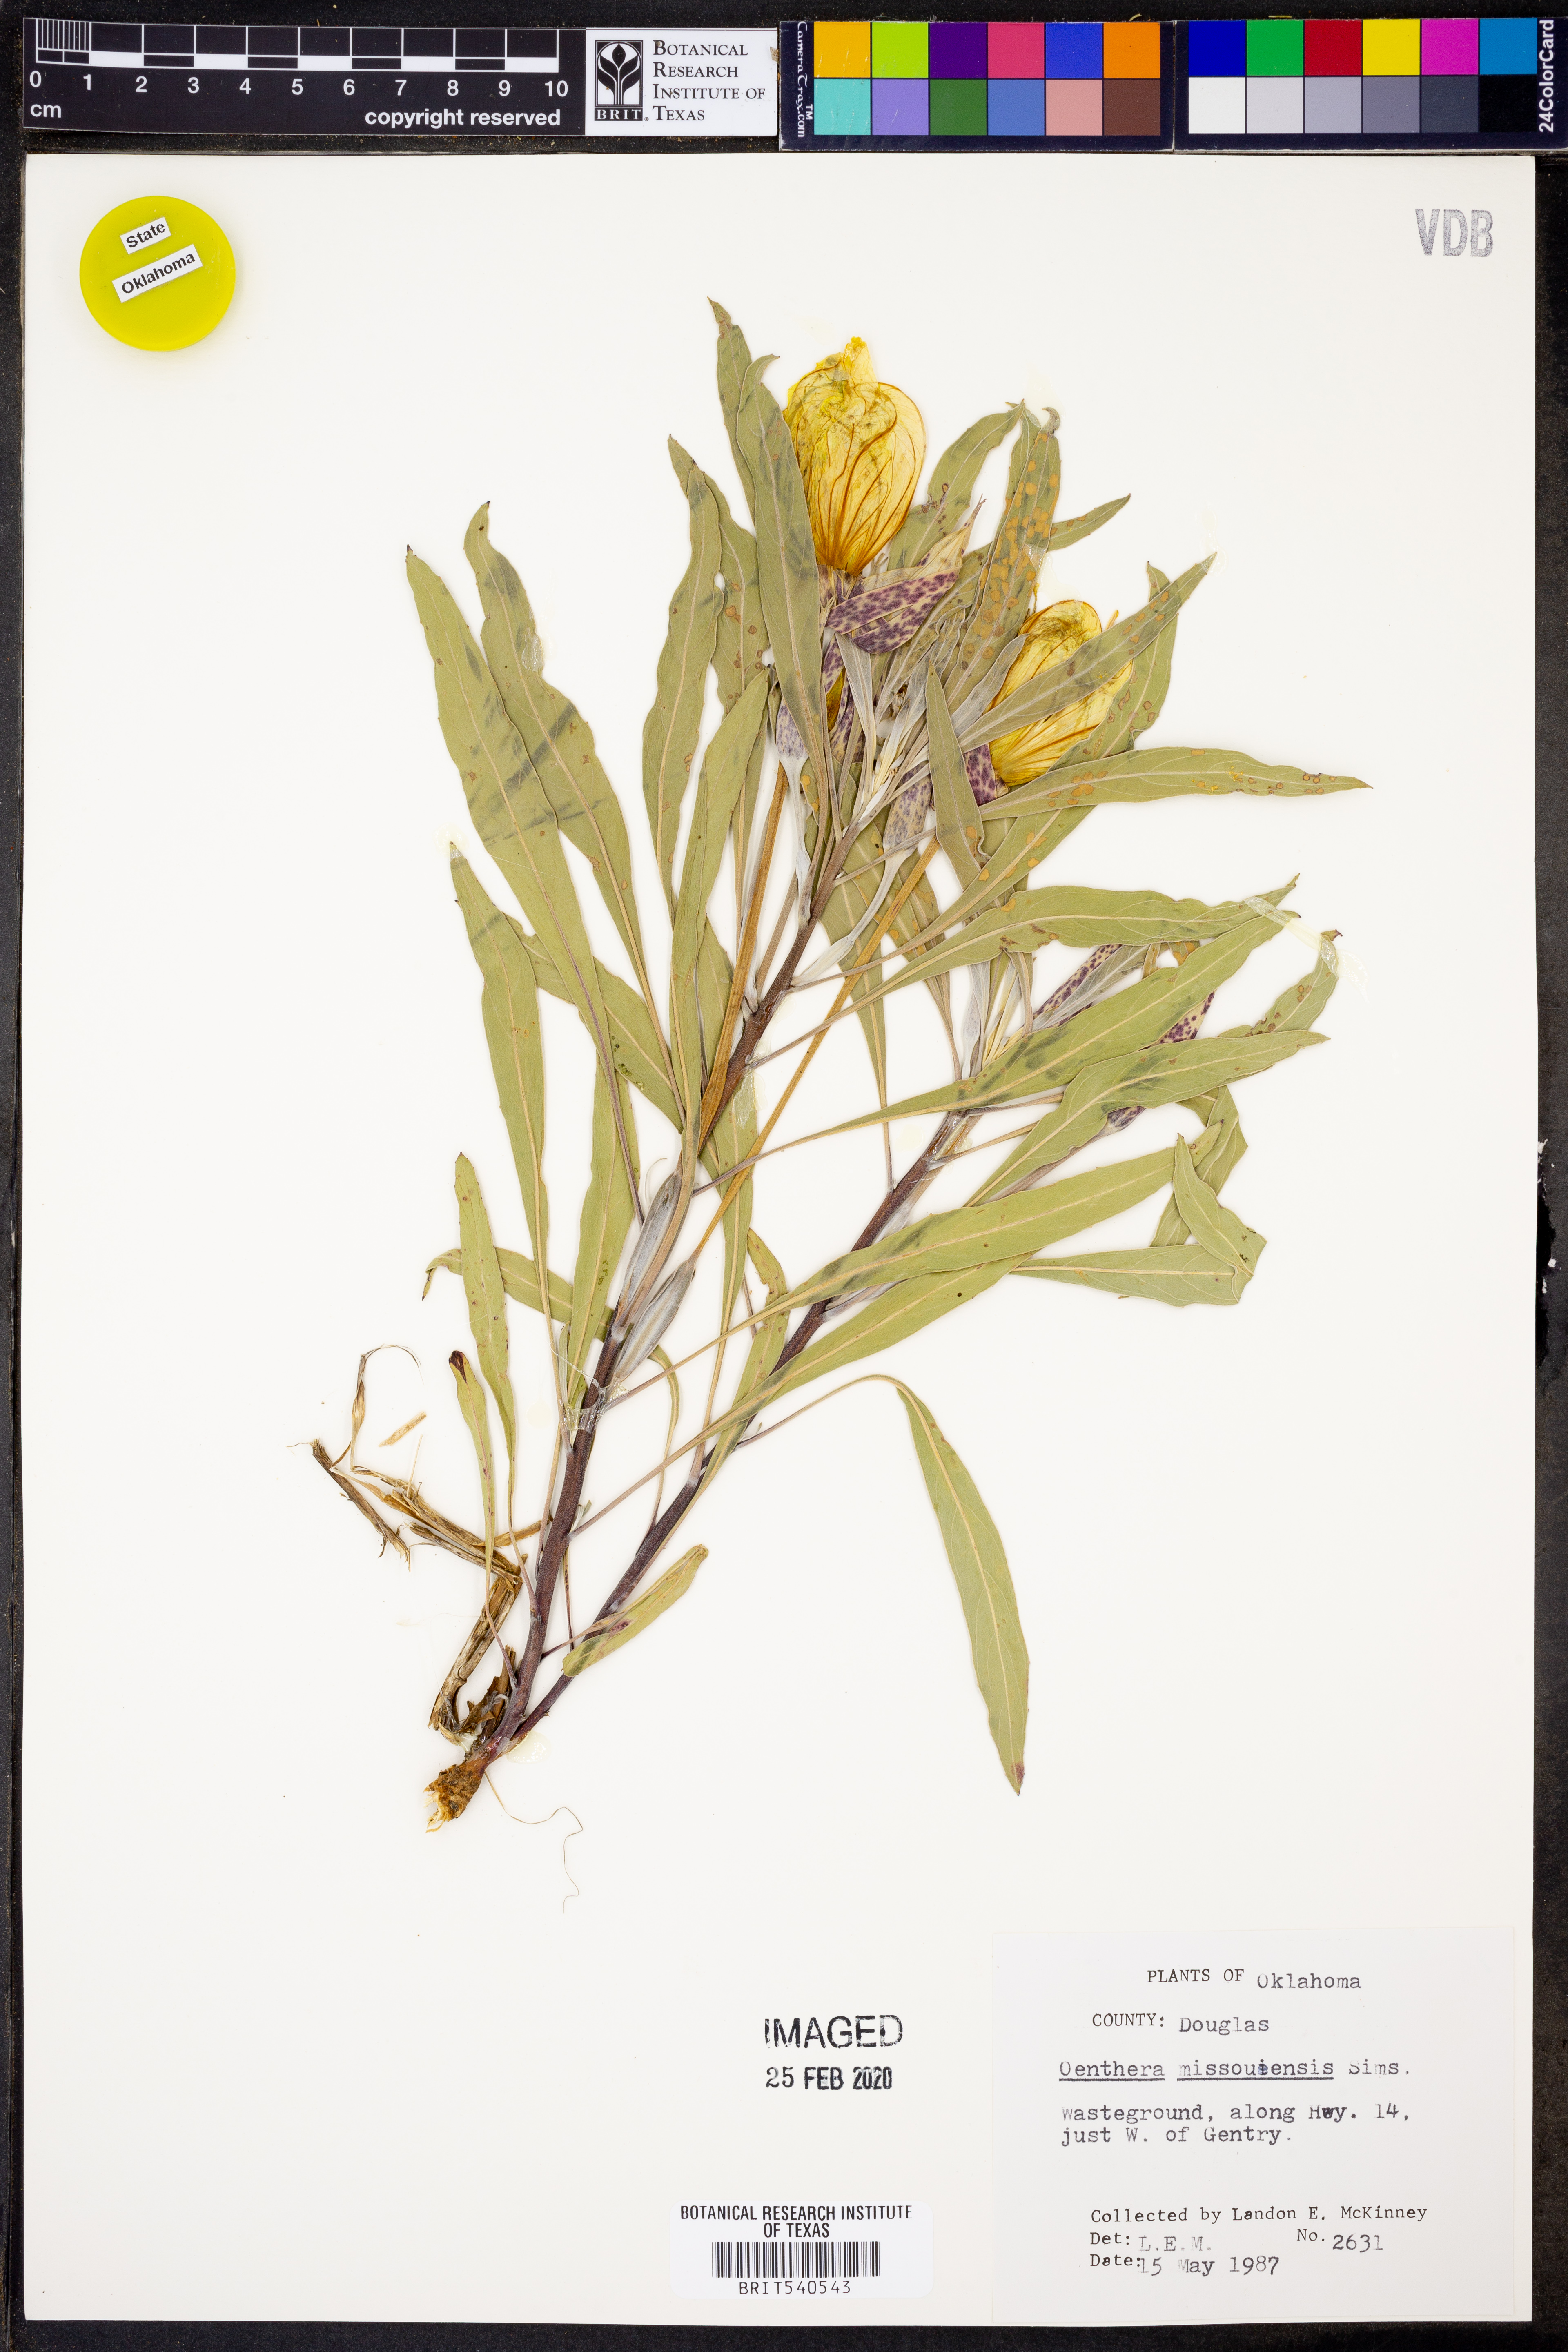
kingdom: Plantae
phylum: Tracheophyta
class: Magnoliopsida
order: Myrtales
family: Onagraceae
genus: Oenothera
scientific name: Oenothera macrocarpa
